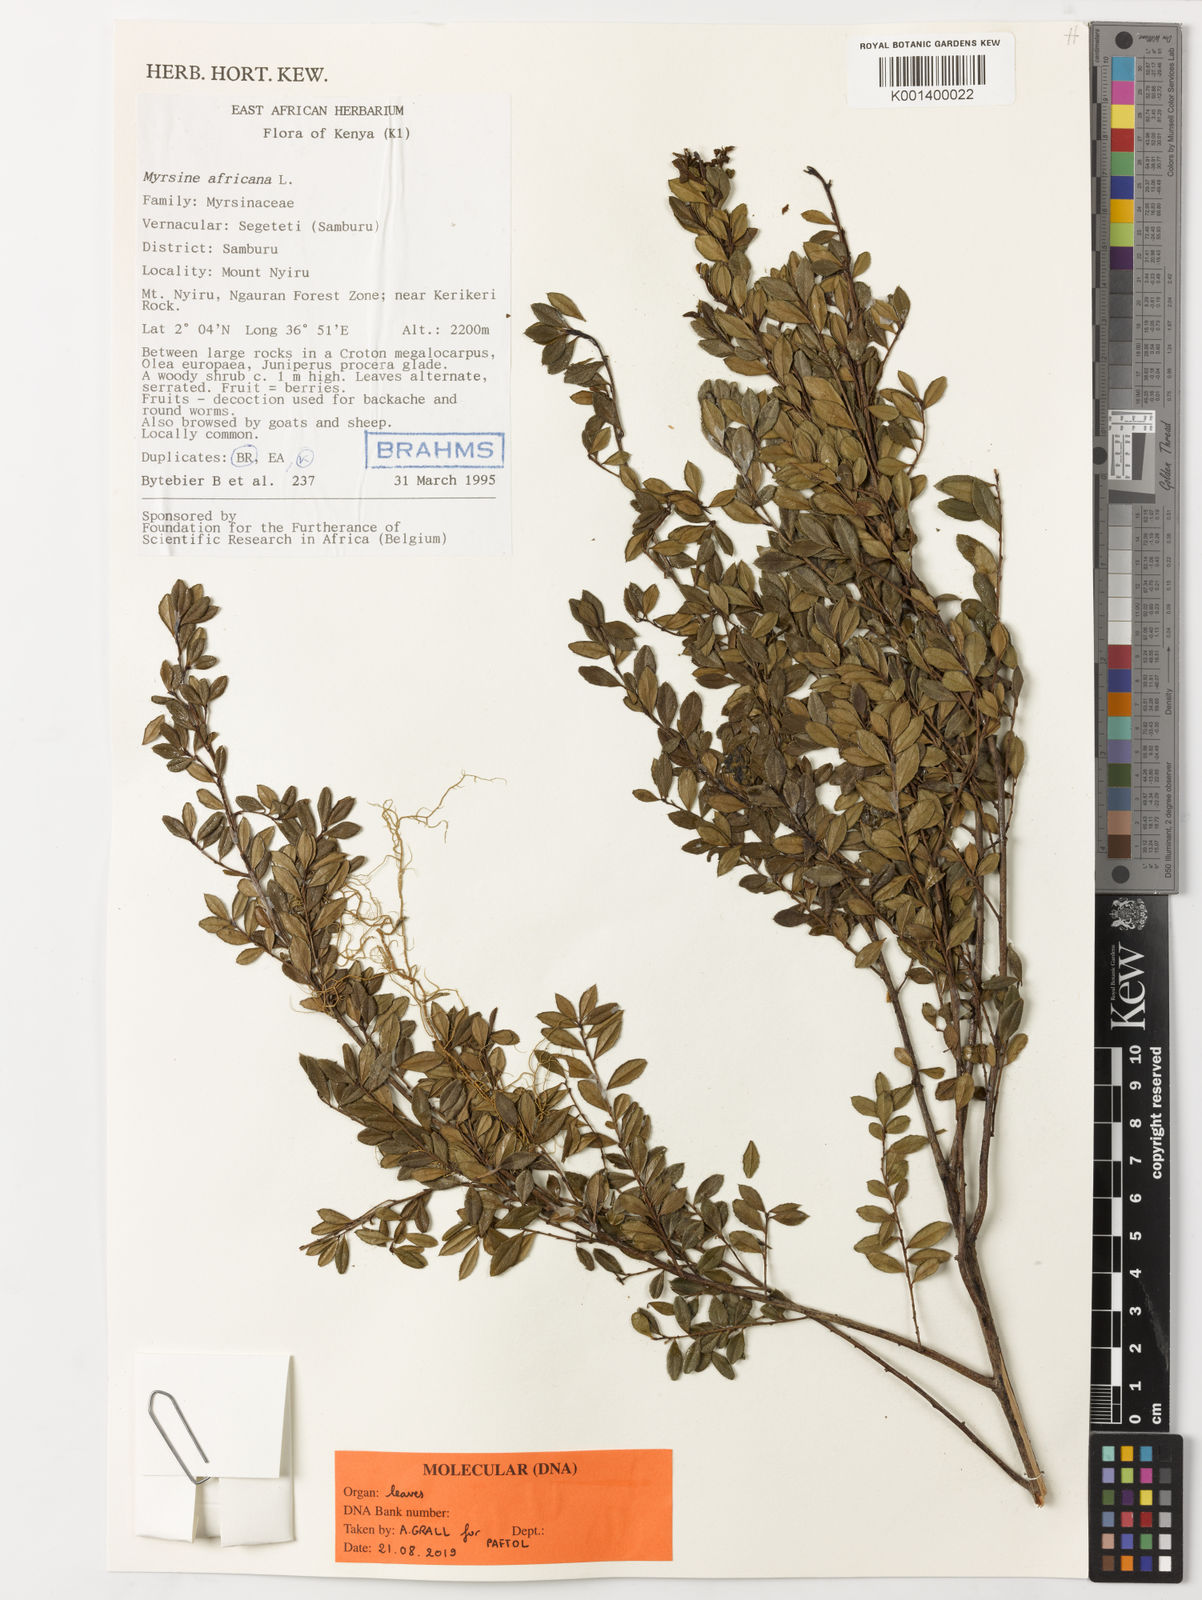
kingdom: Plantae
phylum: Tracheophyta
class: Magnoliopsida
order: Ericales
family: Primulaceae
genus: Myrsine
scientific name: Myrsine africana
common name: African-boxwood
